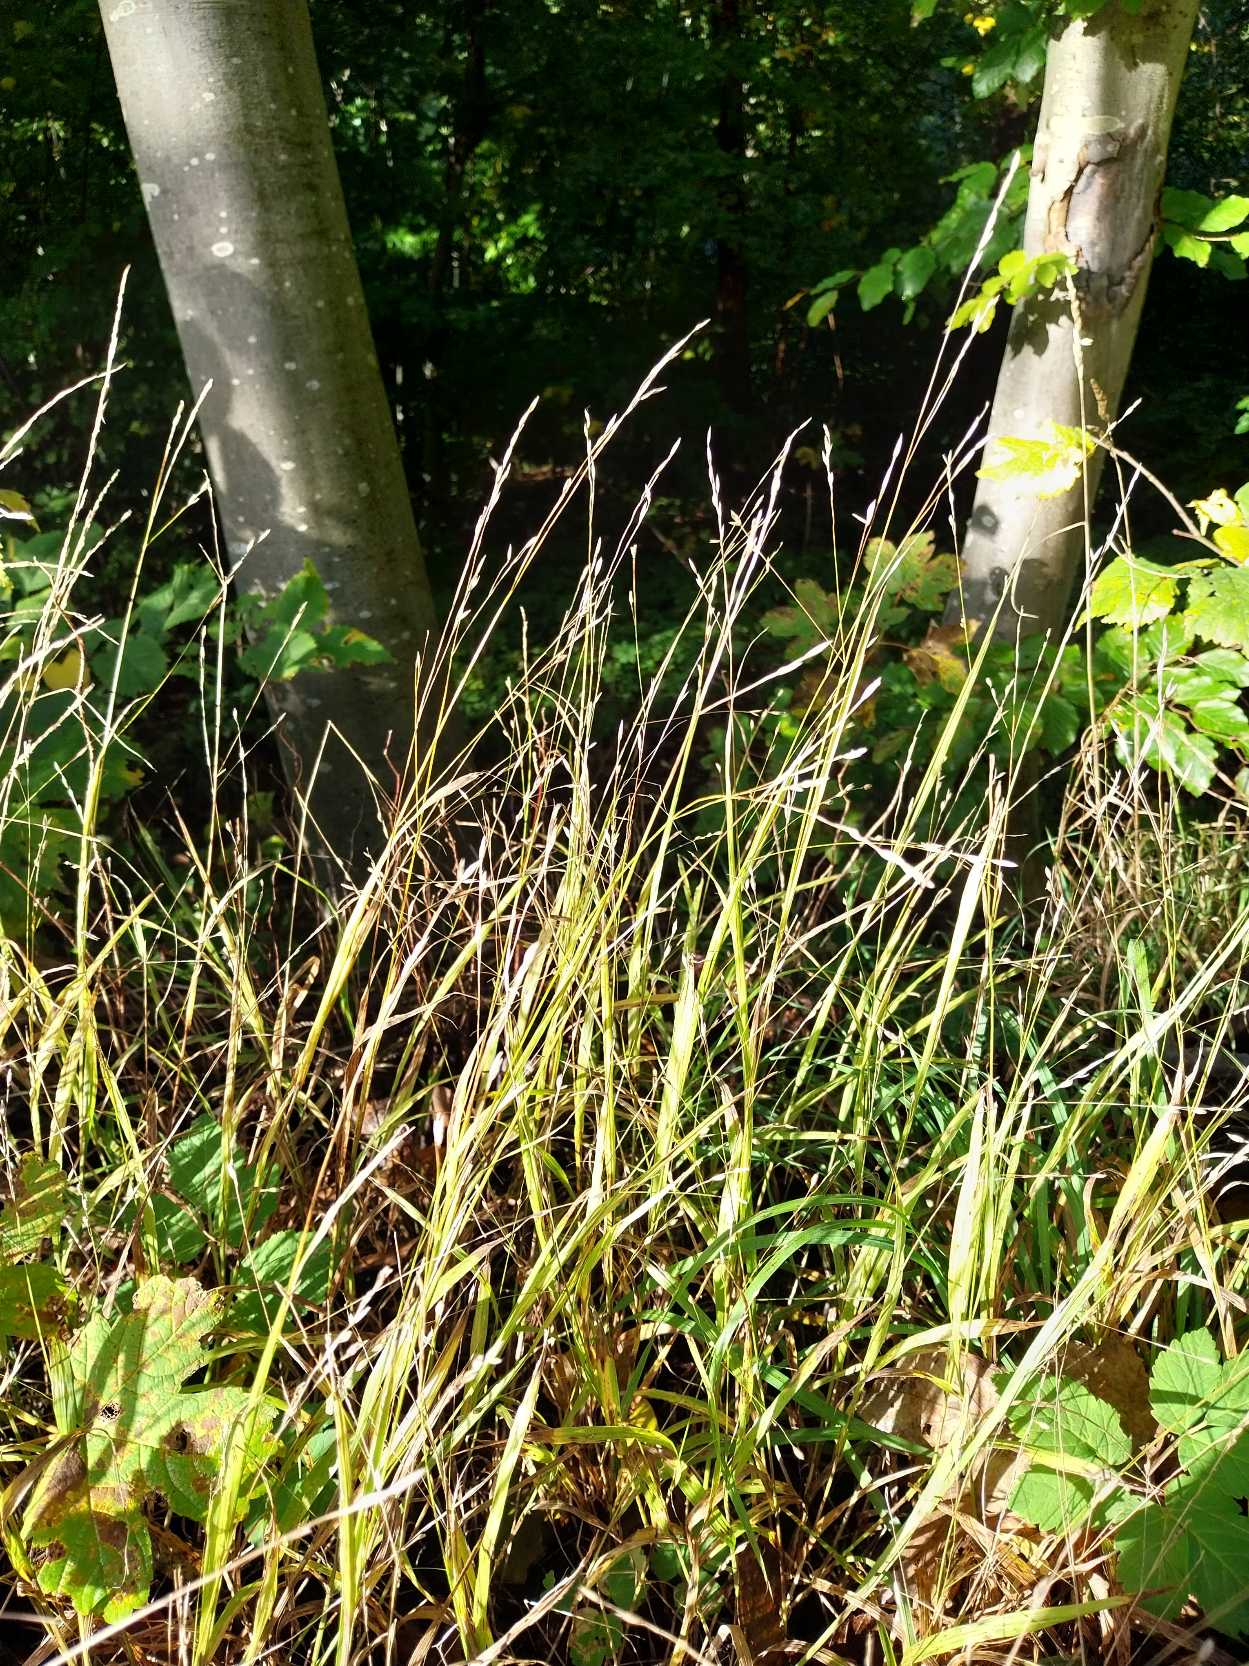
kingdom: Plantae
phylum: Tracheophyta
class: Liliopsida
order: Poales
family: Poaceae
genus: Melica
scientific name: Melica uniflora
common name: Enblomstret flitteraks
